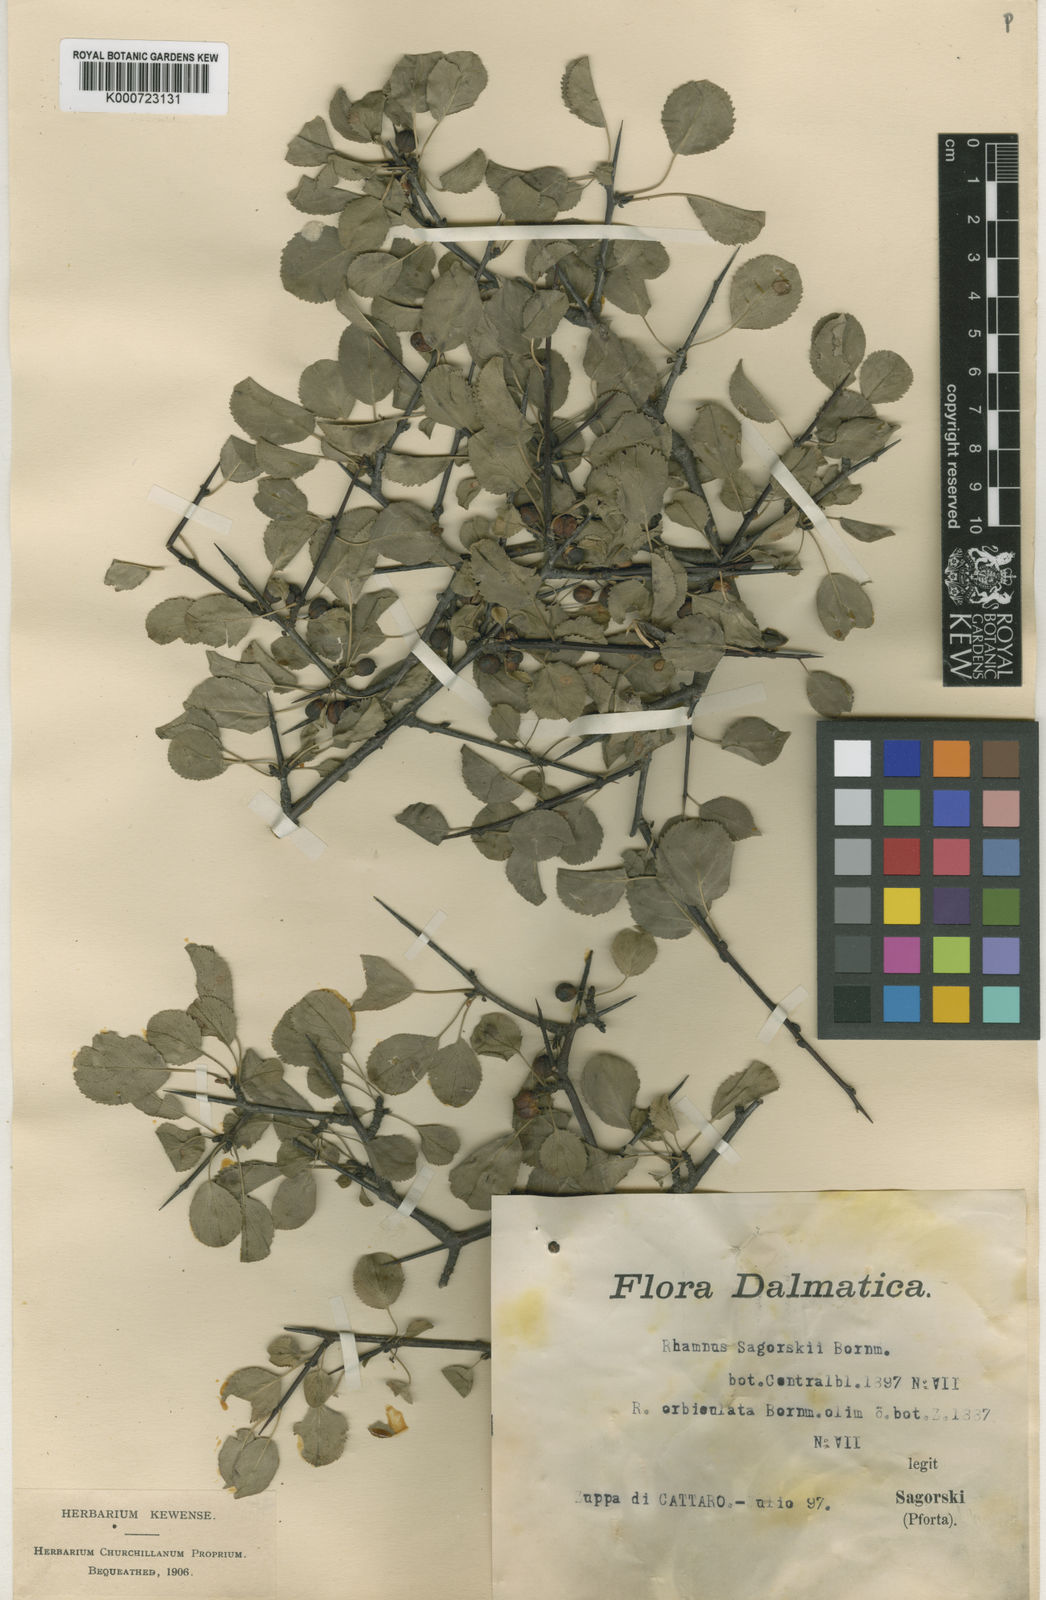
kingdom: Plantae
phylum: Tracheophyta
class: Magnoliopsida
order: Rosales
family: Rhamnaceae
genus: Rhamnus
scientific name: Rhamnus orbiculata
